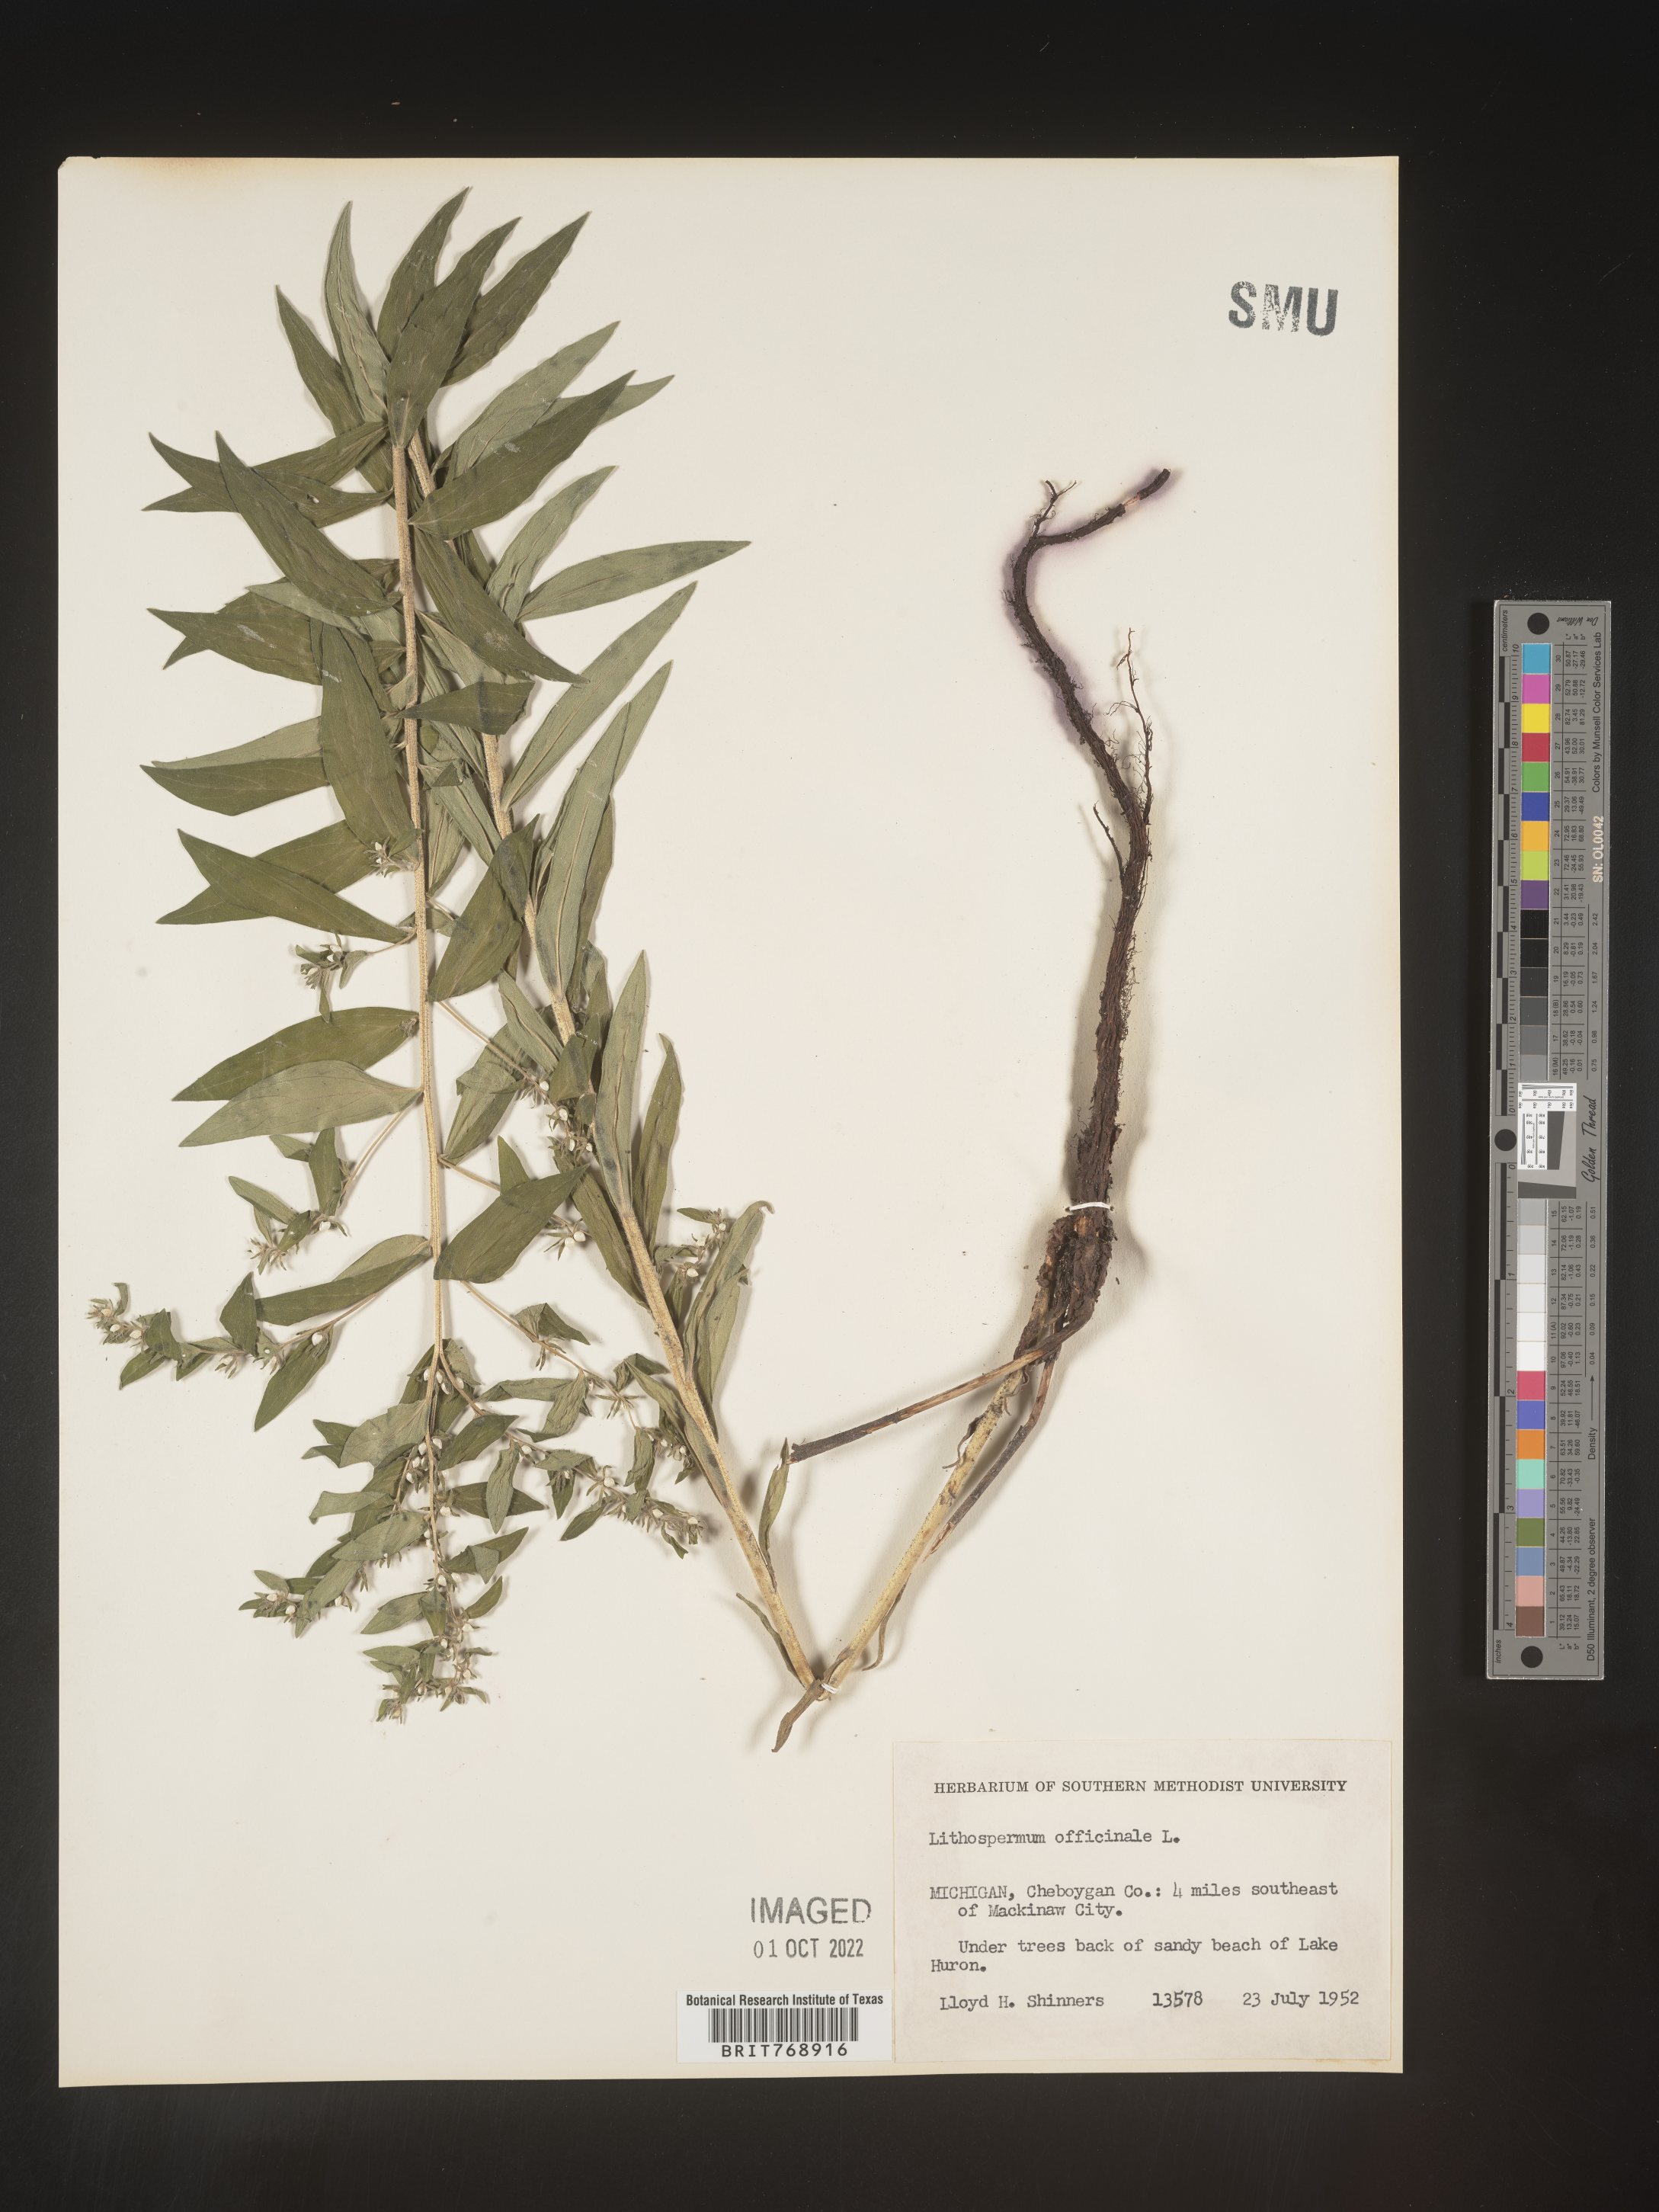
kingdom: Plantae
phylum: Tracheophyta
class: Magnoliopsida
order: Boraginales
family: Boraginaceae
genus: Lithospermum
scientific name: Lithospermum
